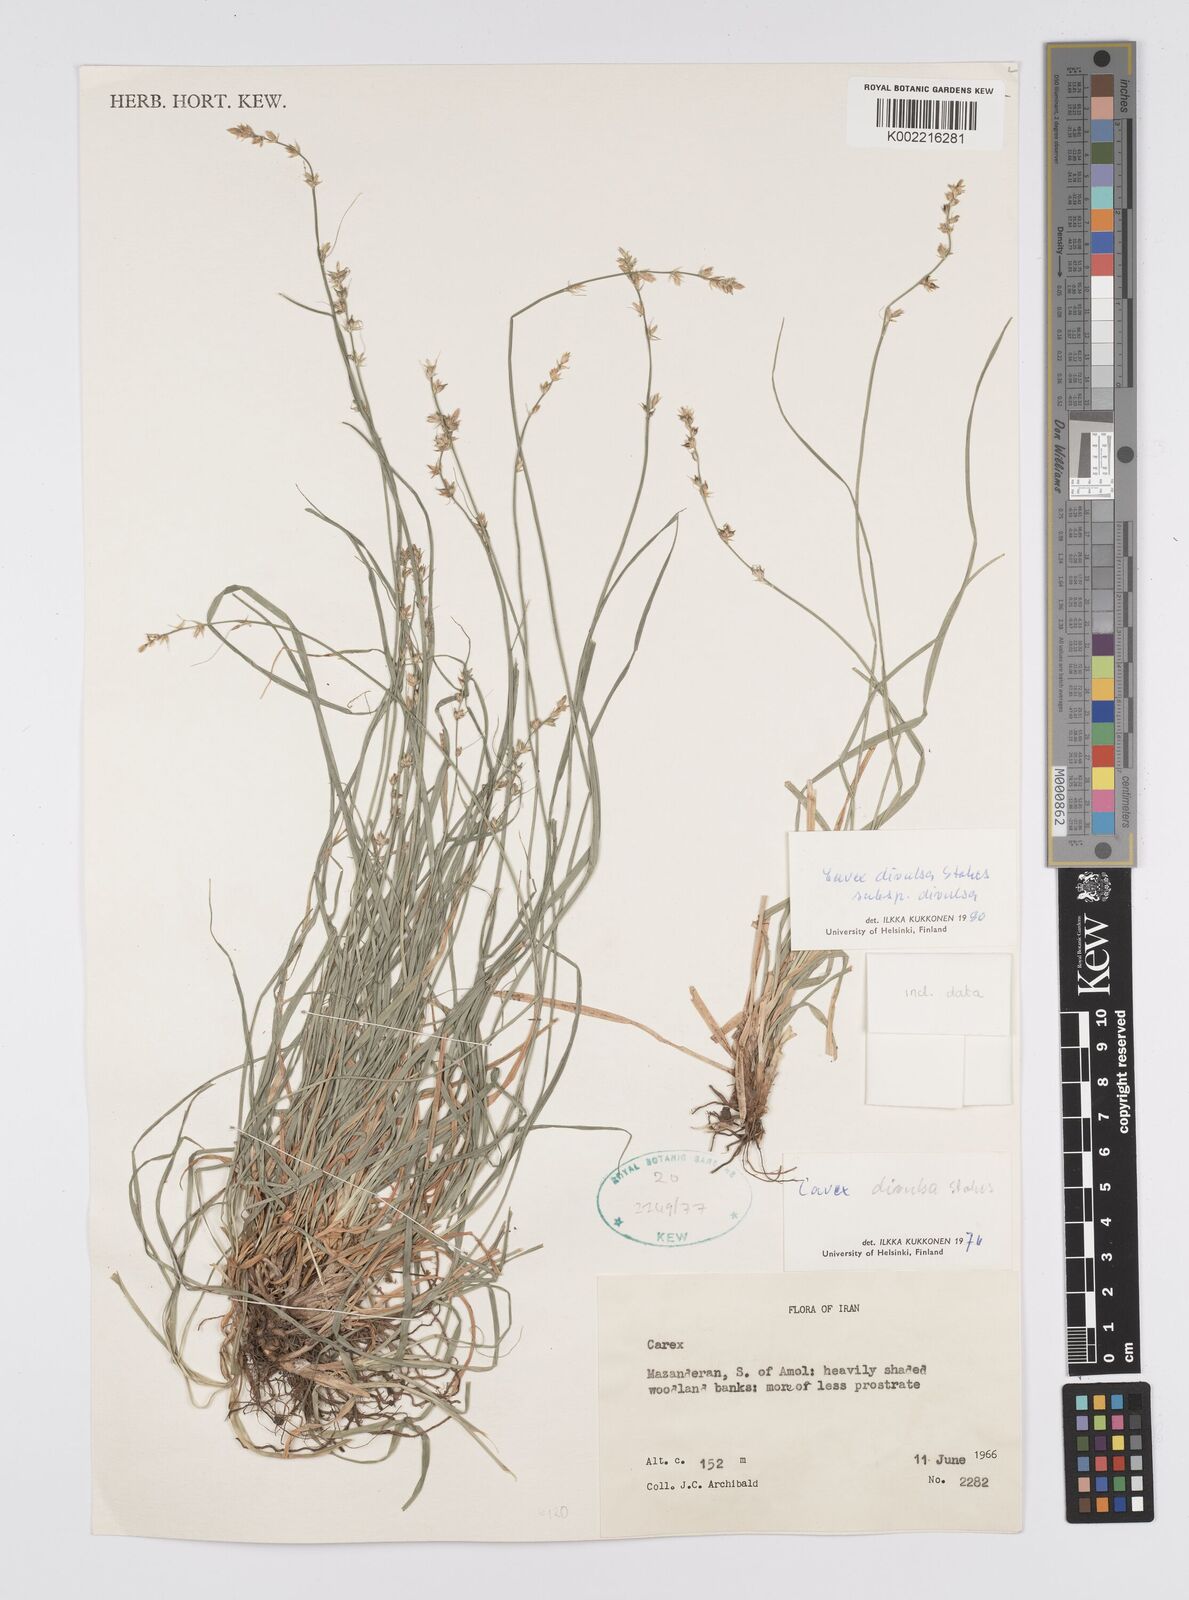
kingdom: Plantae
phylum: Tracheophyta
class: Liliopsida
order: Poales
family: Cyperaceae
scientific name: Cyperaceae
